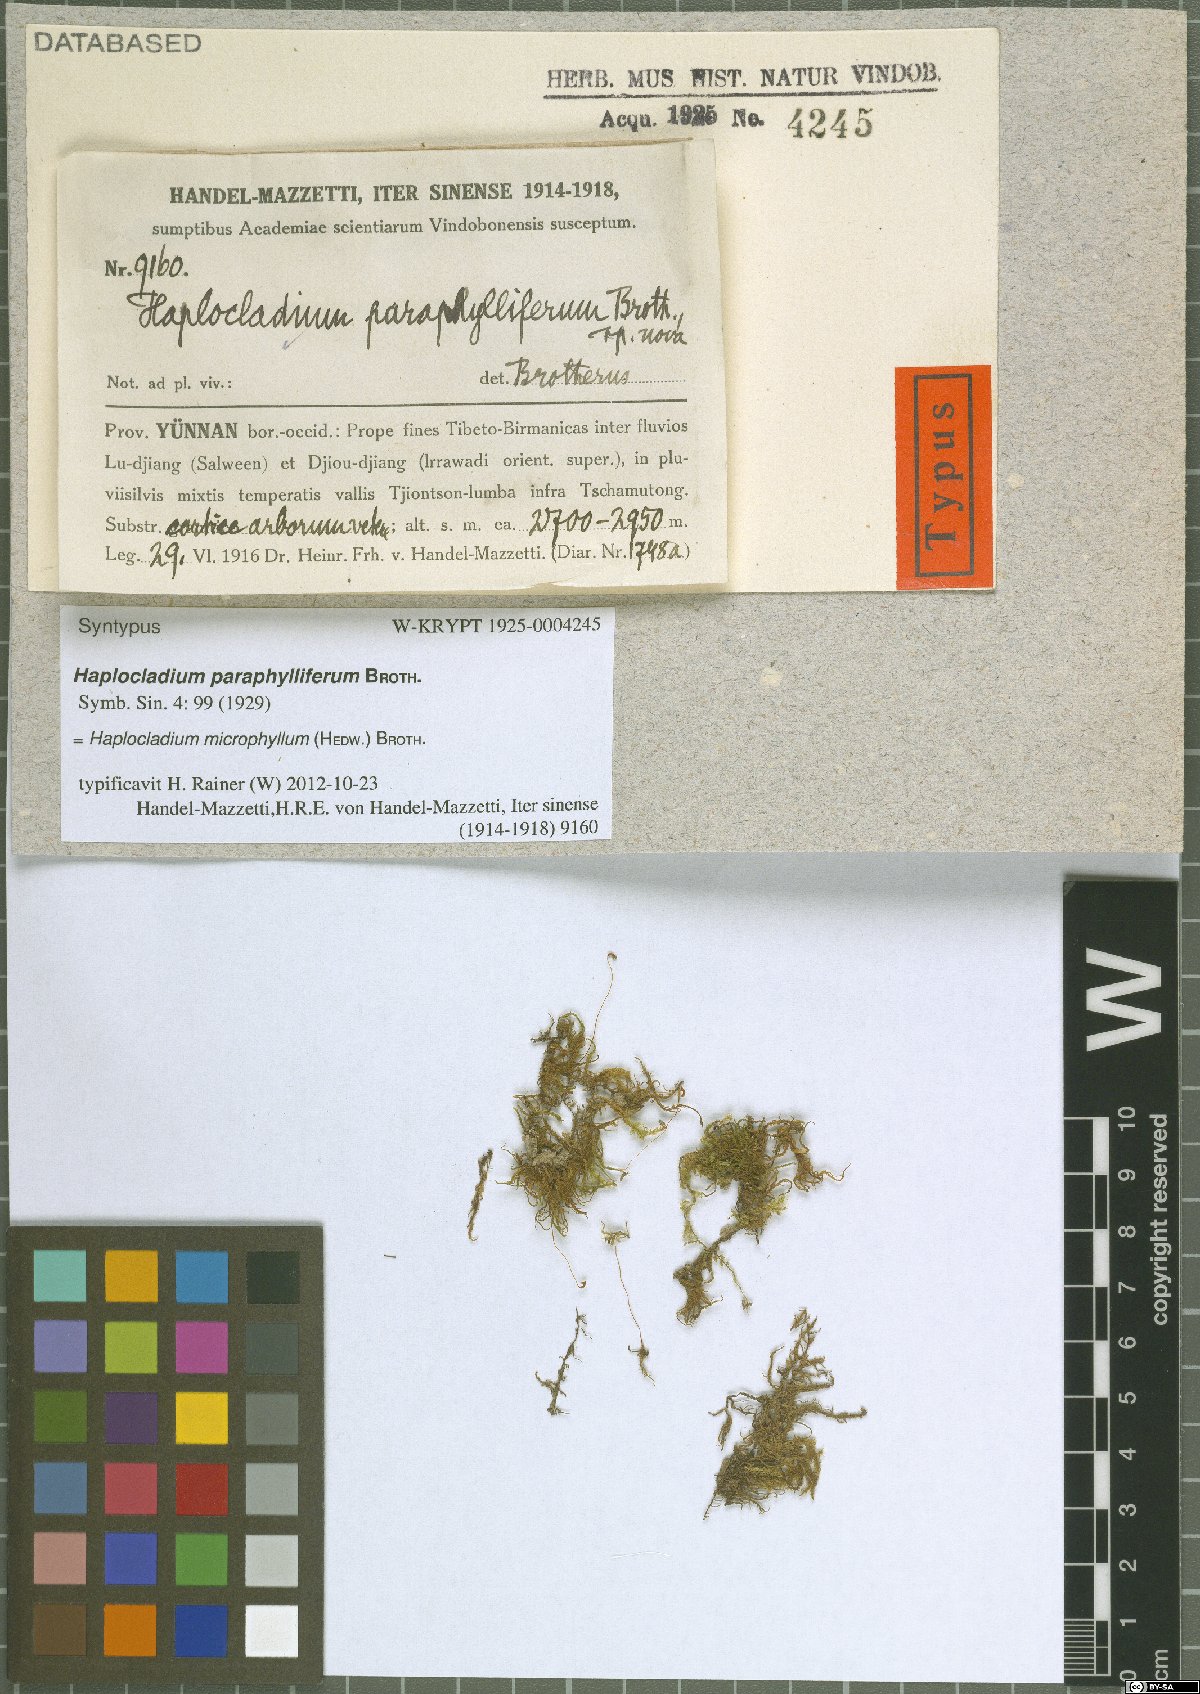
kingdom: Plantae
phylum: Bryophyta
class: Bryopsida
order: Hypnales
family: Leskeaceae
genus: Haplocladium
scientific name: Haplocladium microphyllum
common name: Tiny-leaved haplocladium
